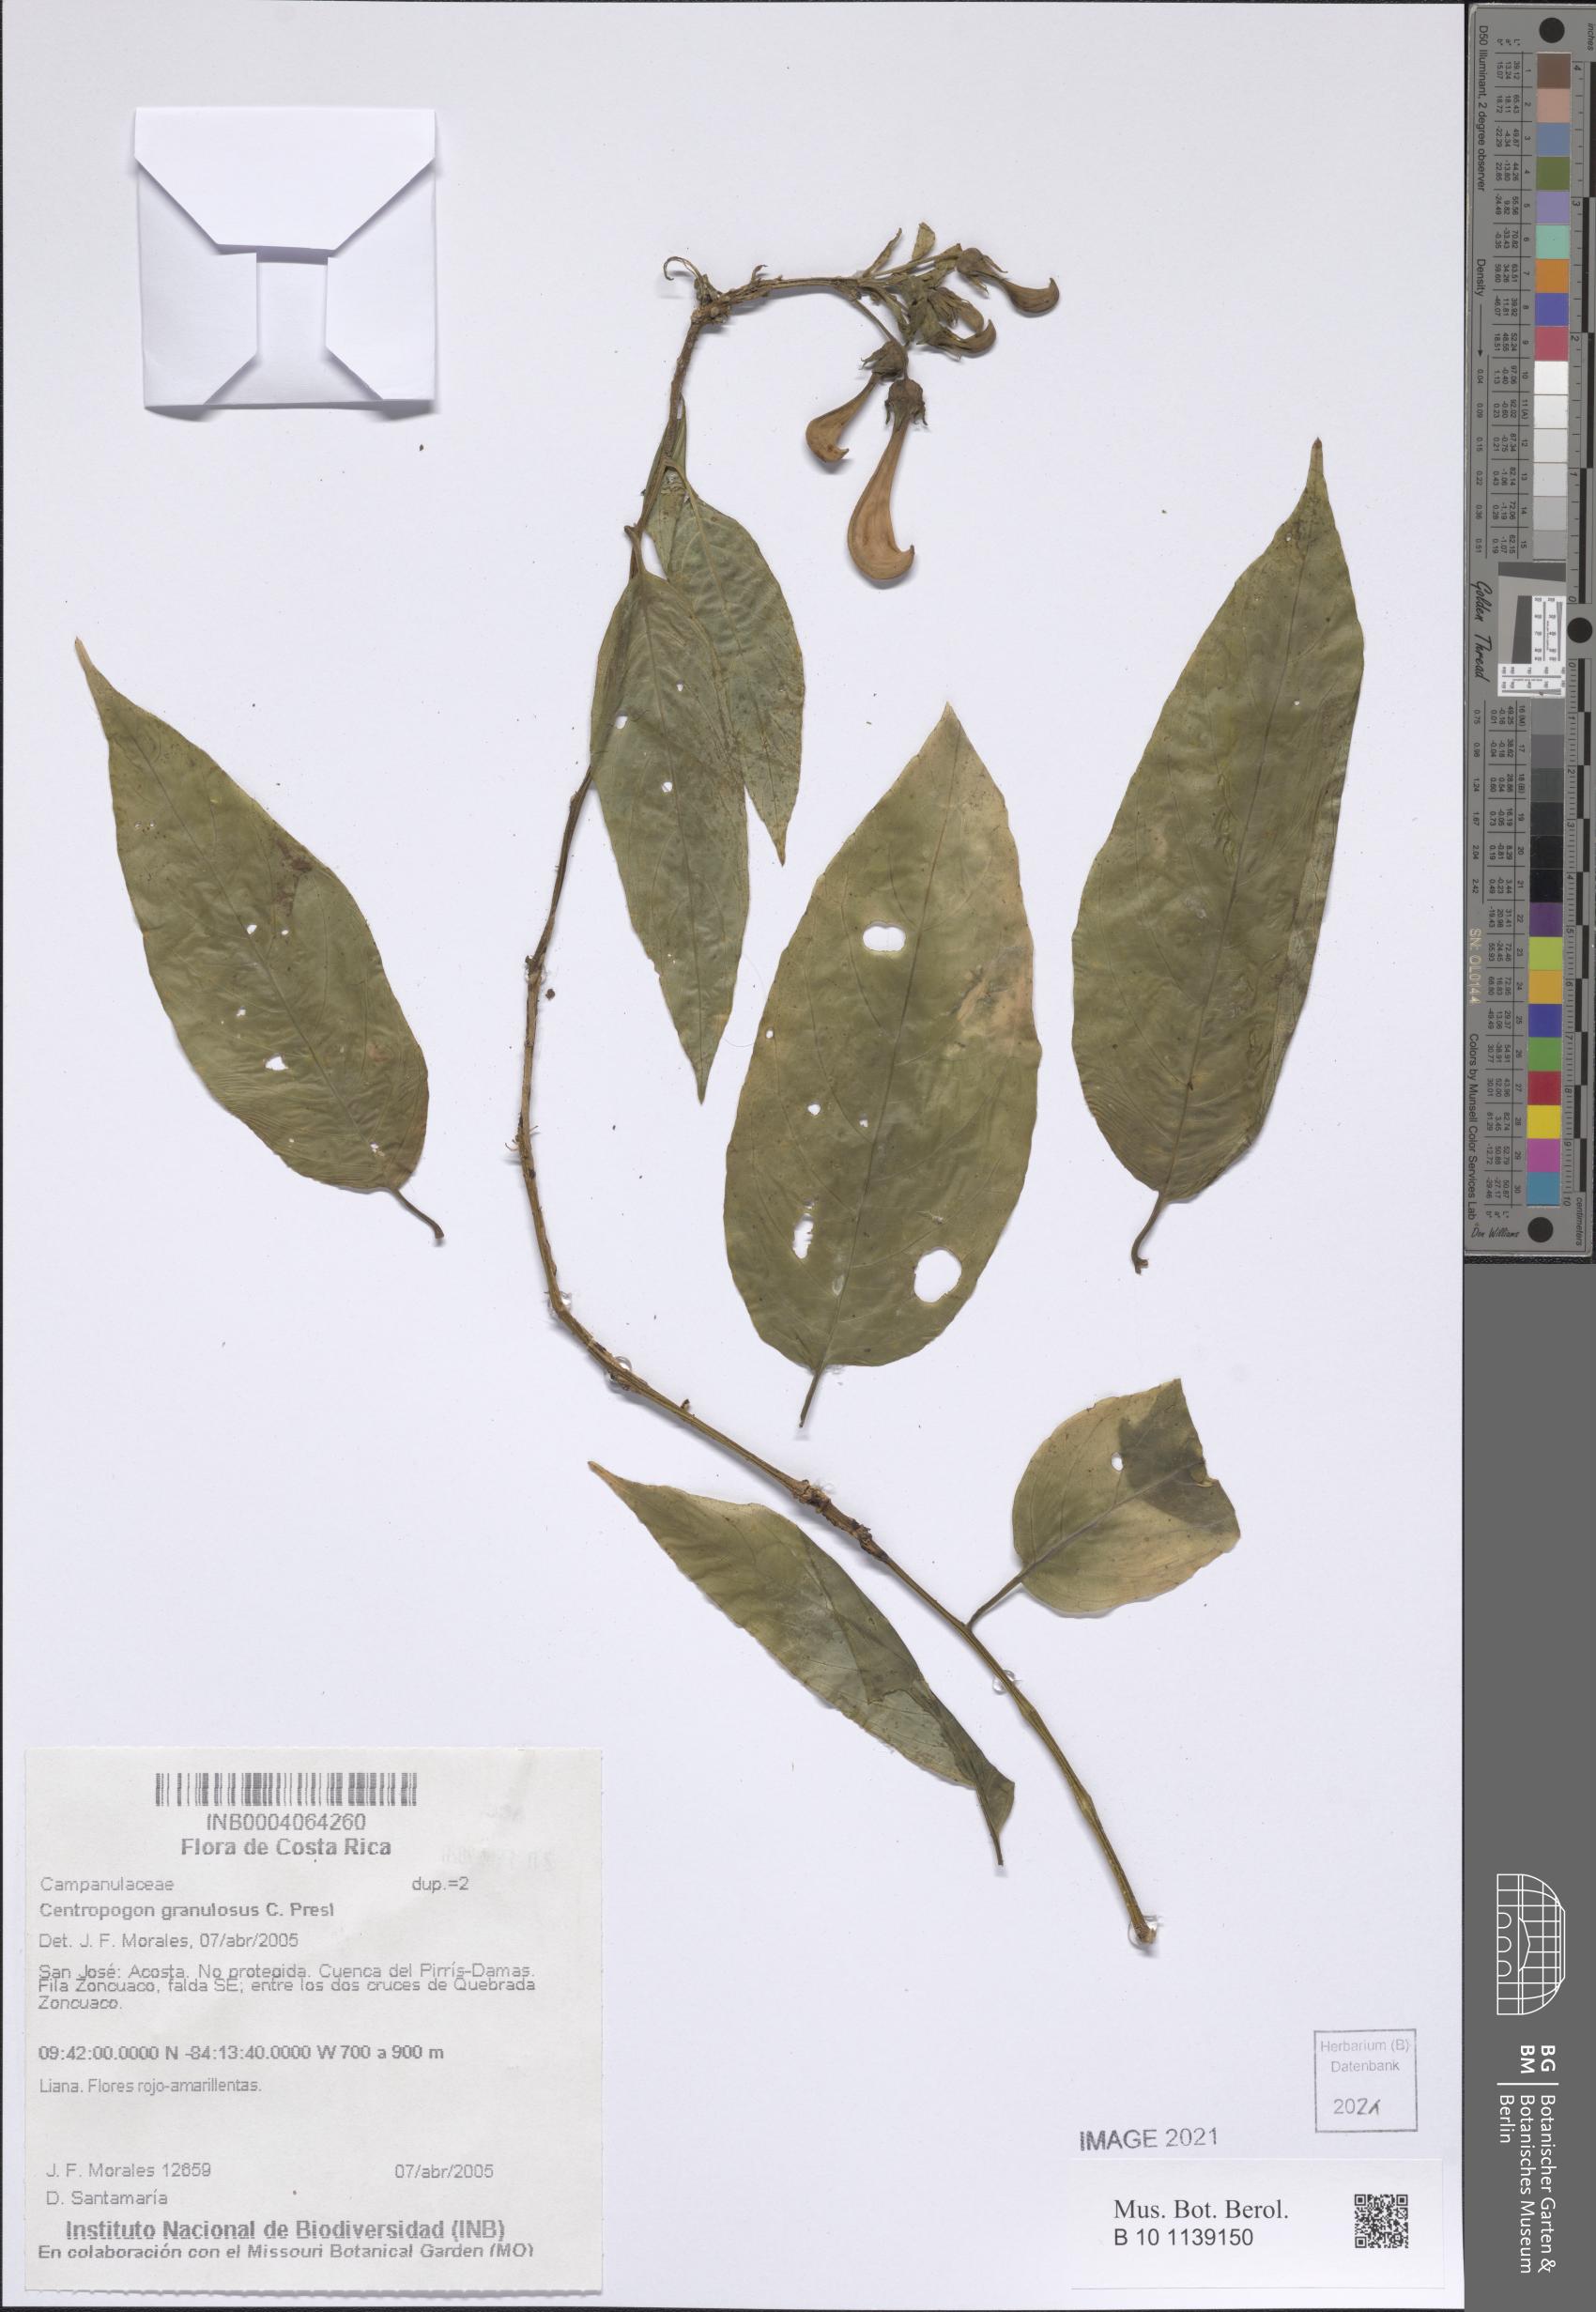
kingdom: Plantae
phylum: Tracheophyta
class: Magnoliopsida
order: Asterales
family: Campanulaceae
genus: Centropogon
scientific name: Centropogon granulosus
